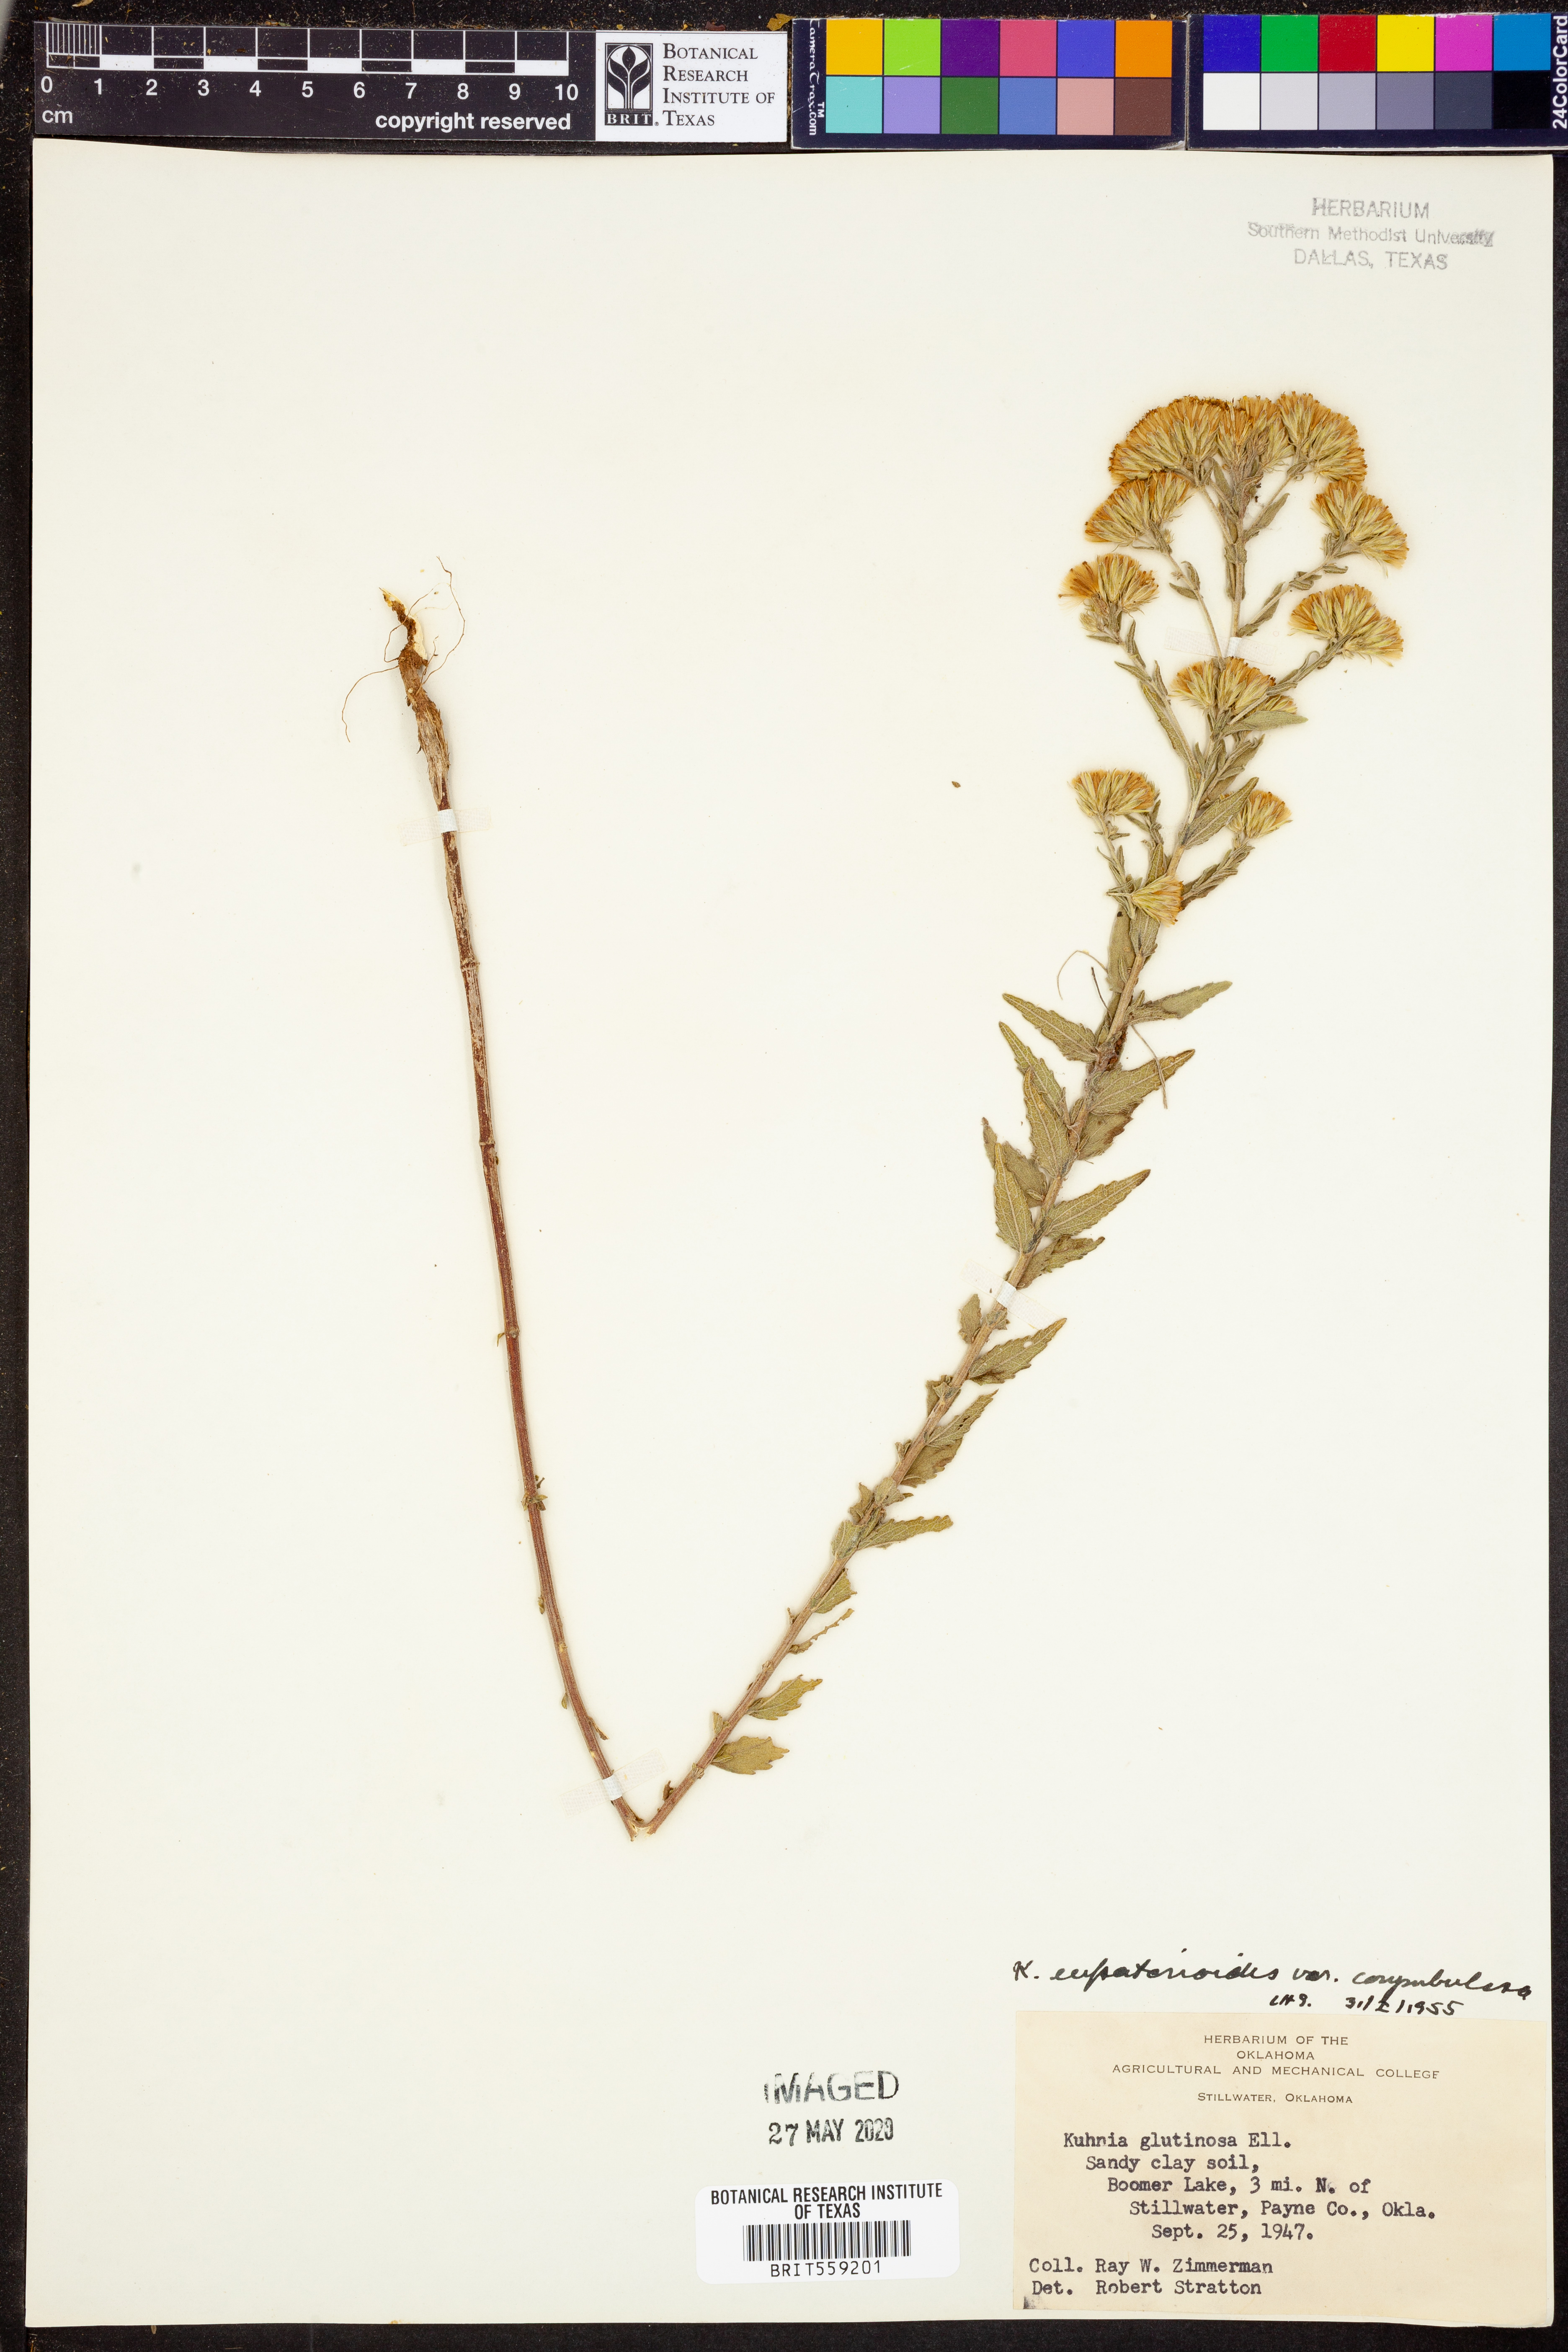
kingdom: Plantae
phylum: Tracheophyta
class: Magnoliopsida
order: Asterales
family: Asteraceae
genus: Brickellia
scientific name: Brickellia suaveolens
